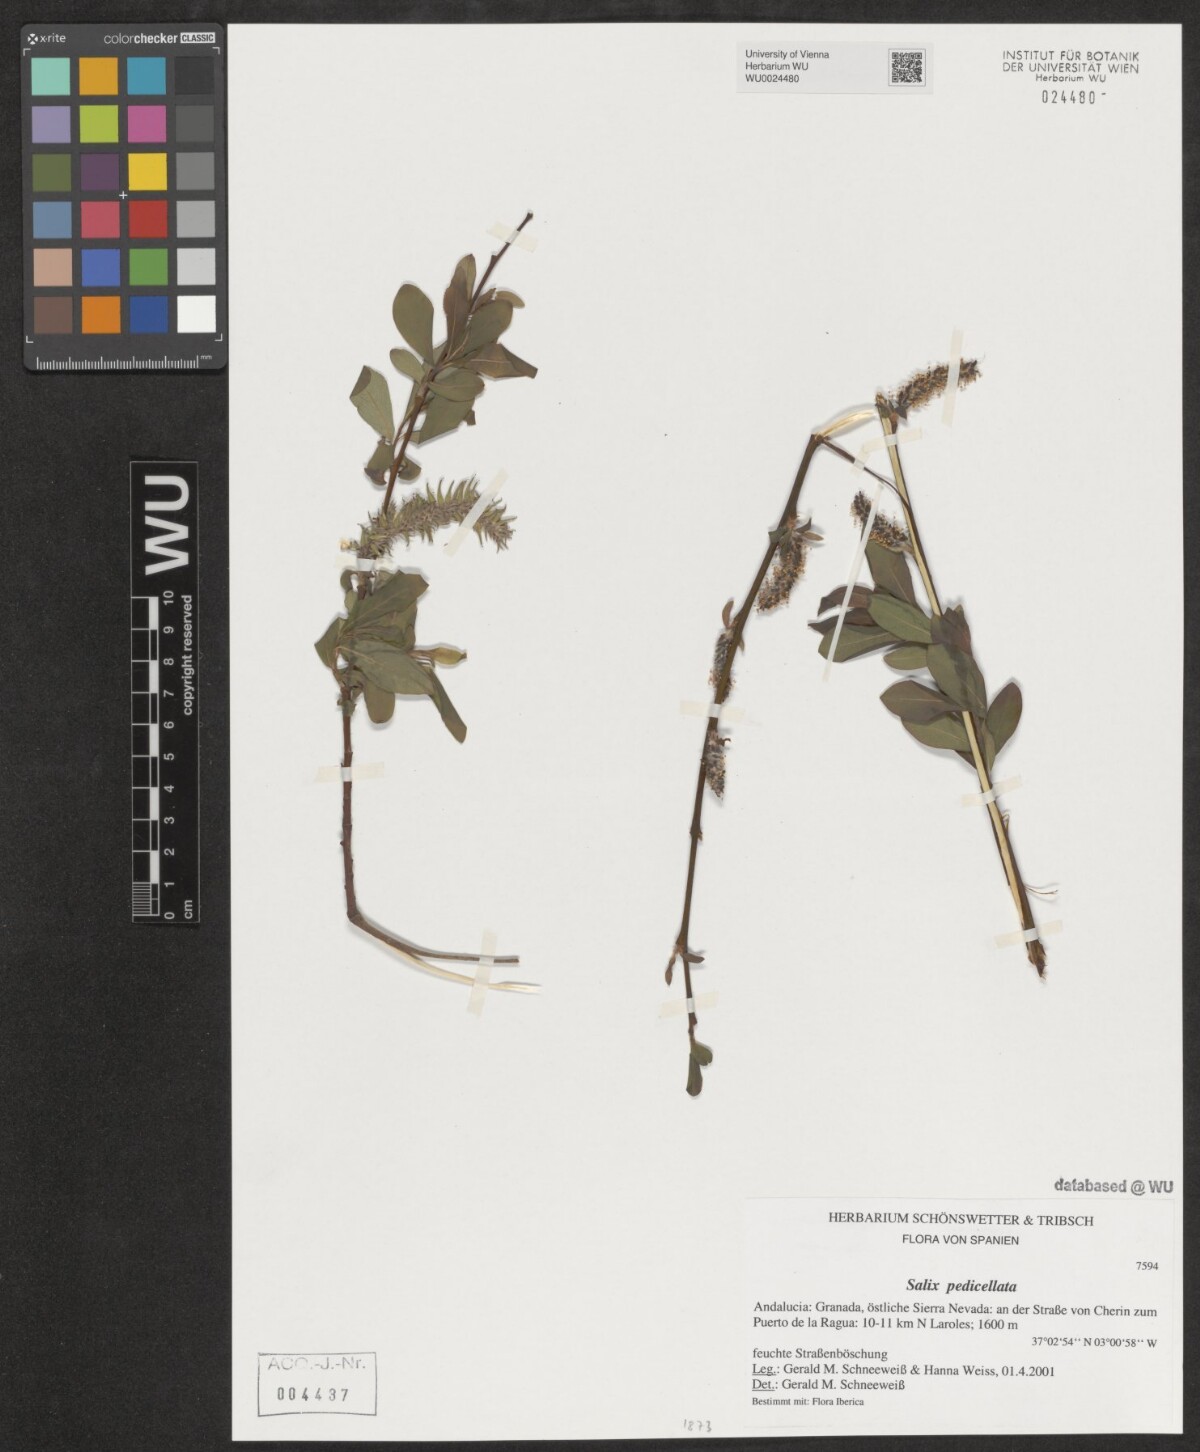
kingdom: Plantae
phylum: Tracheophyta
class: Magnoliopsida
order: Malpighiales
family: Salicaceae
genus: Salix
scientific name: Salix pedicellata
